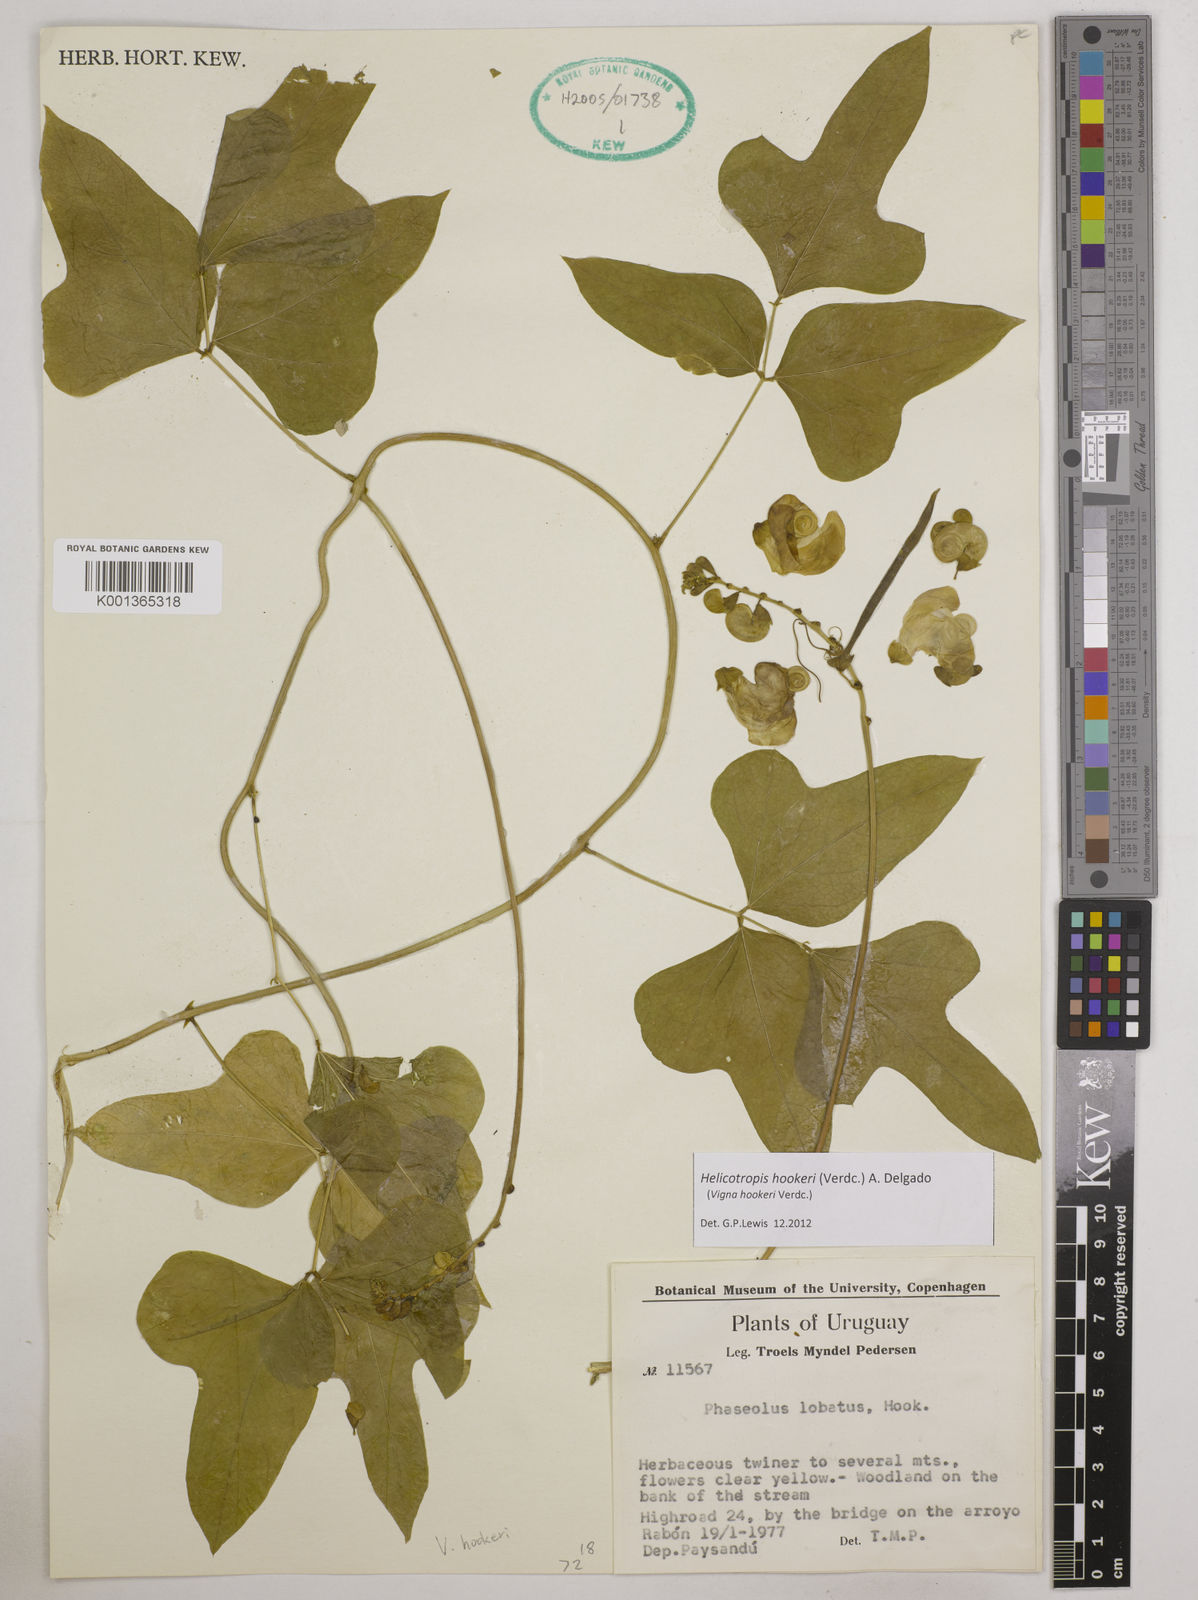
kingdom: Plantae
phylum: Tracheophyta
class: Magnoliopsida
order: Fabales
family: Fabaceae
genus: Helicotropis
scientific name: Helicotropis hookeri
